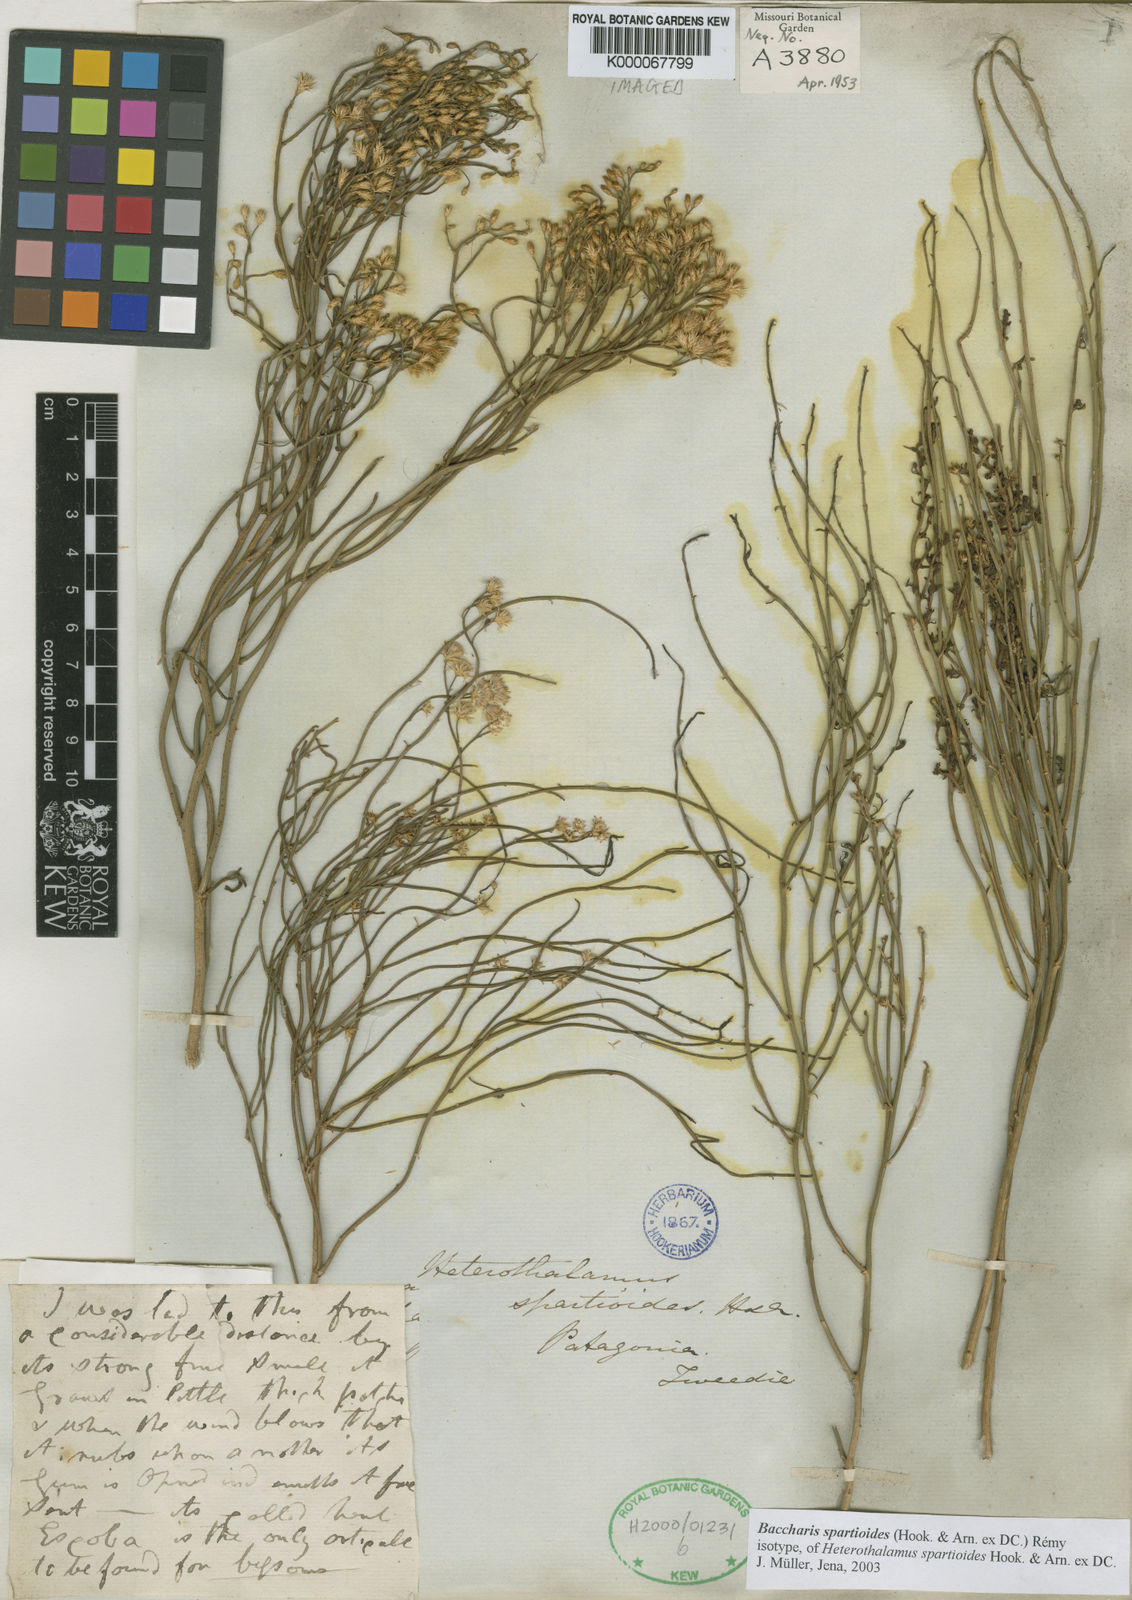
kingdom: Plantae
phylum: Tracheophyta
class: Magnoliopsida
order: Asterales
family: Asteraceae
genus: Baccharis
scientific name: Baccharis
